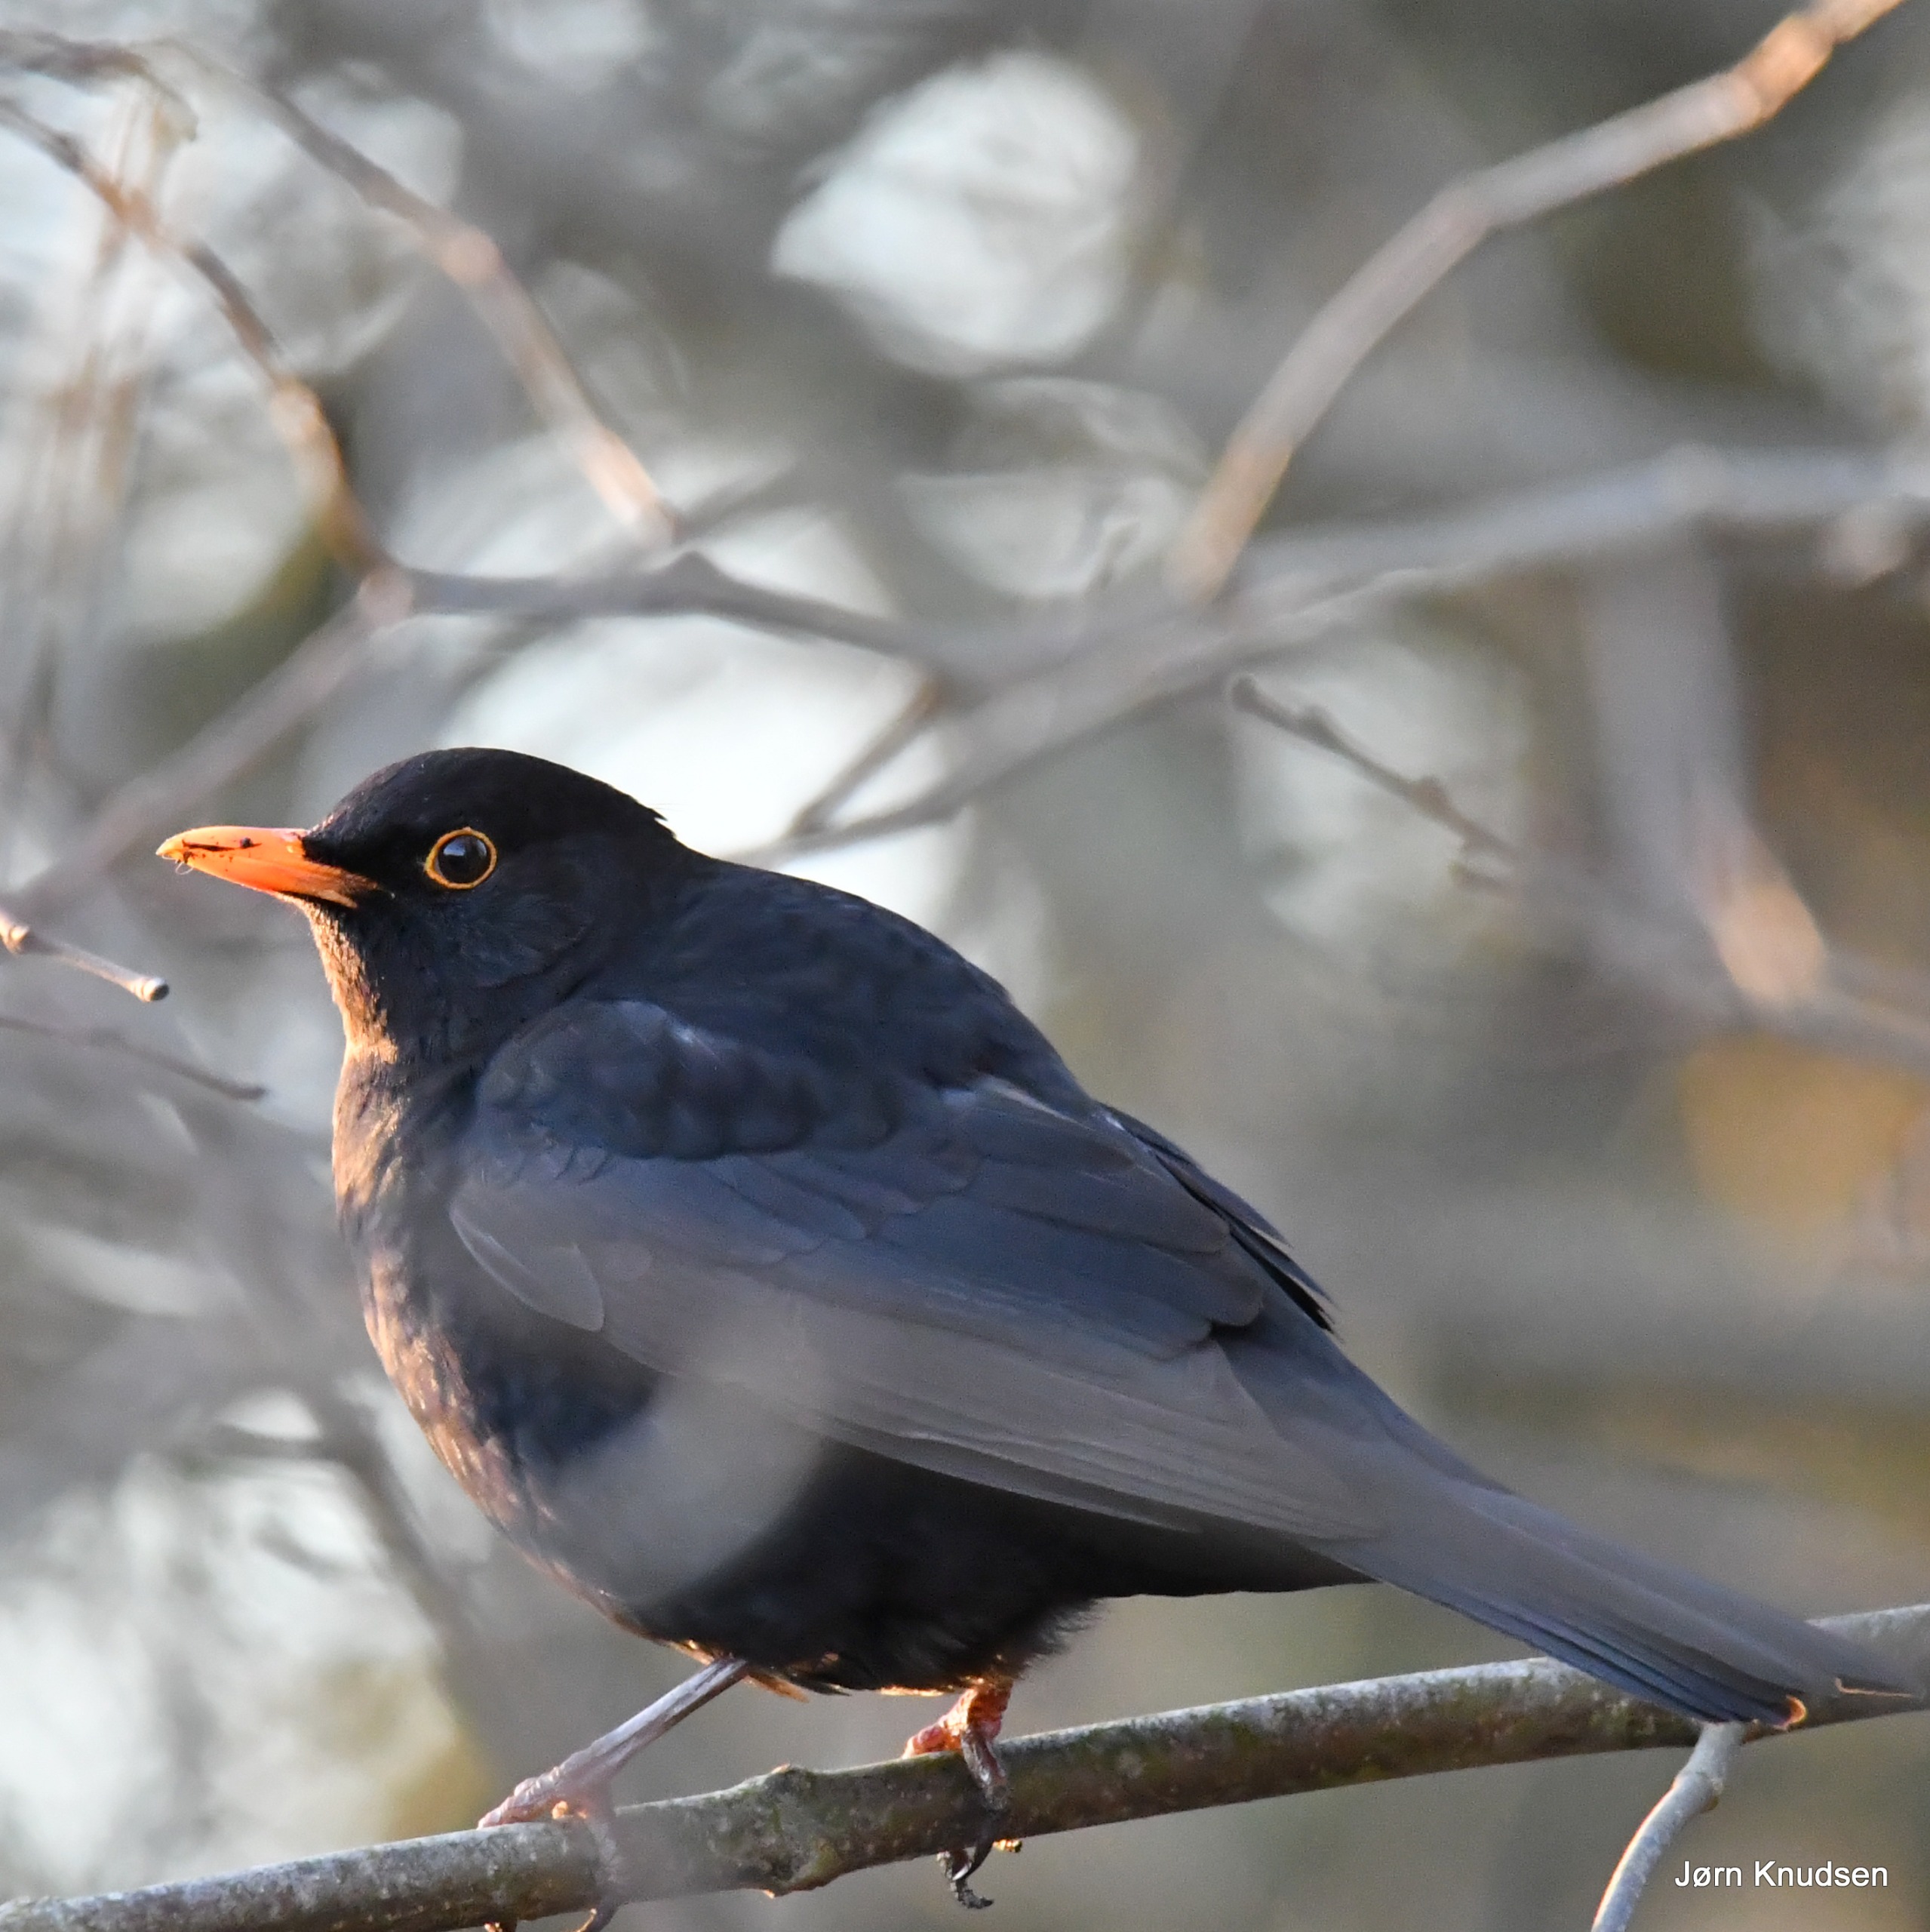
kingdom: Animalia
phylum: Chordata
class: Aves
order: Passeriformes
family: Turdidae
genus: Turdus
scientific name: Turdus merula
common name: Solsort
